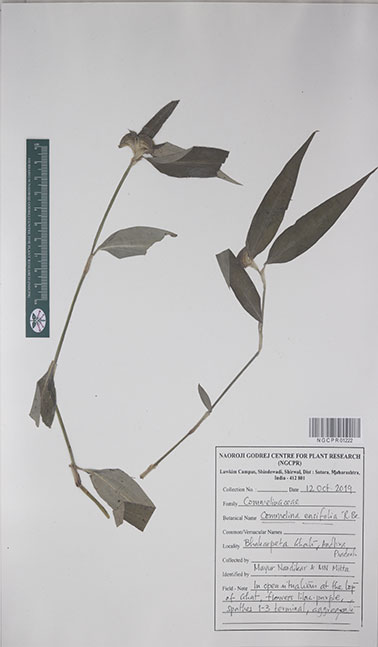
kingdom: Plantae
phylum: Tracheophyta
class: Liliopsida
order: Commelinales
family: Commelinaceae
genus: Commelina
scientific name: Commelina ensifolia
